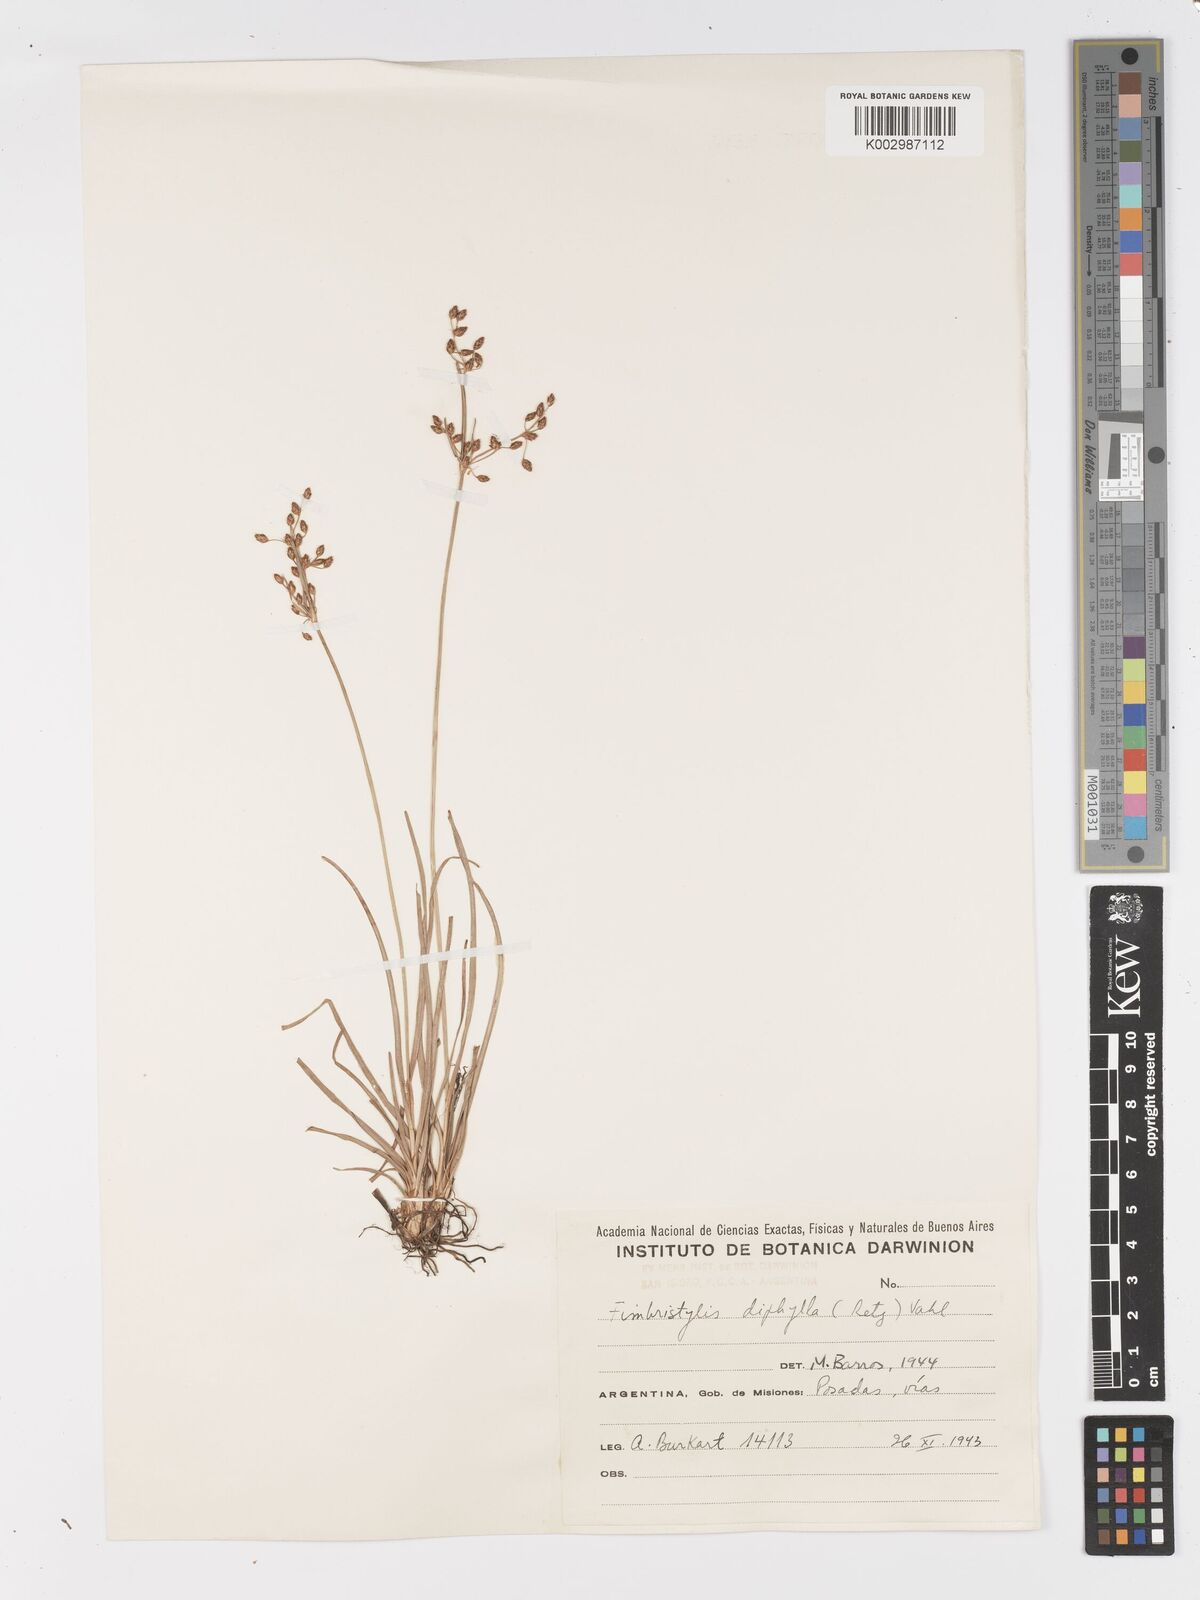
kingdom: Plantae
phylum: Tracheophyta
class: Liliopsida
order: Poales
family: Cyperaceae
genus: Fimbristylis
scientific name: Fimbristylis dichotoma
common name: Forked fimbry
